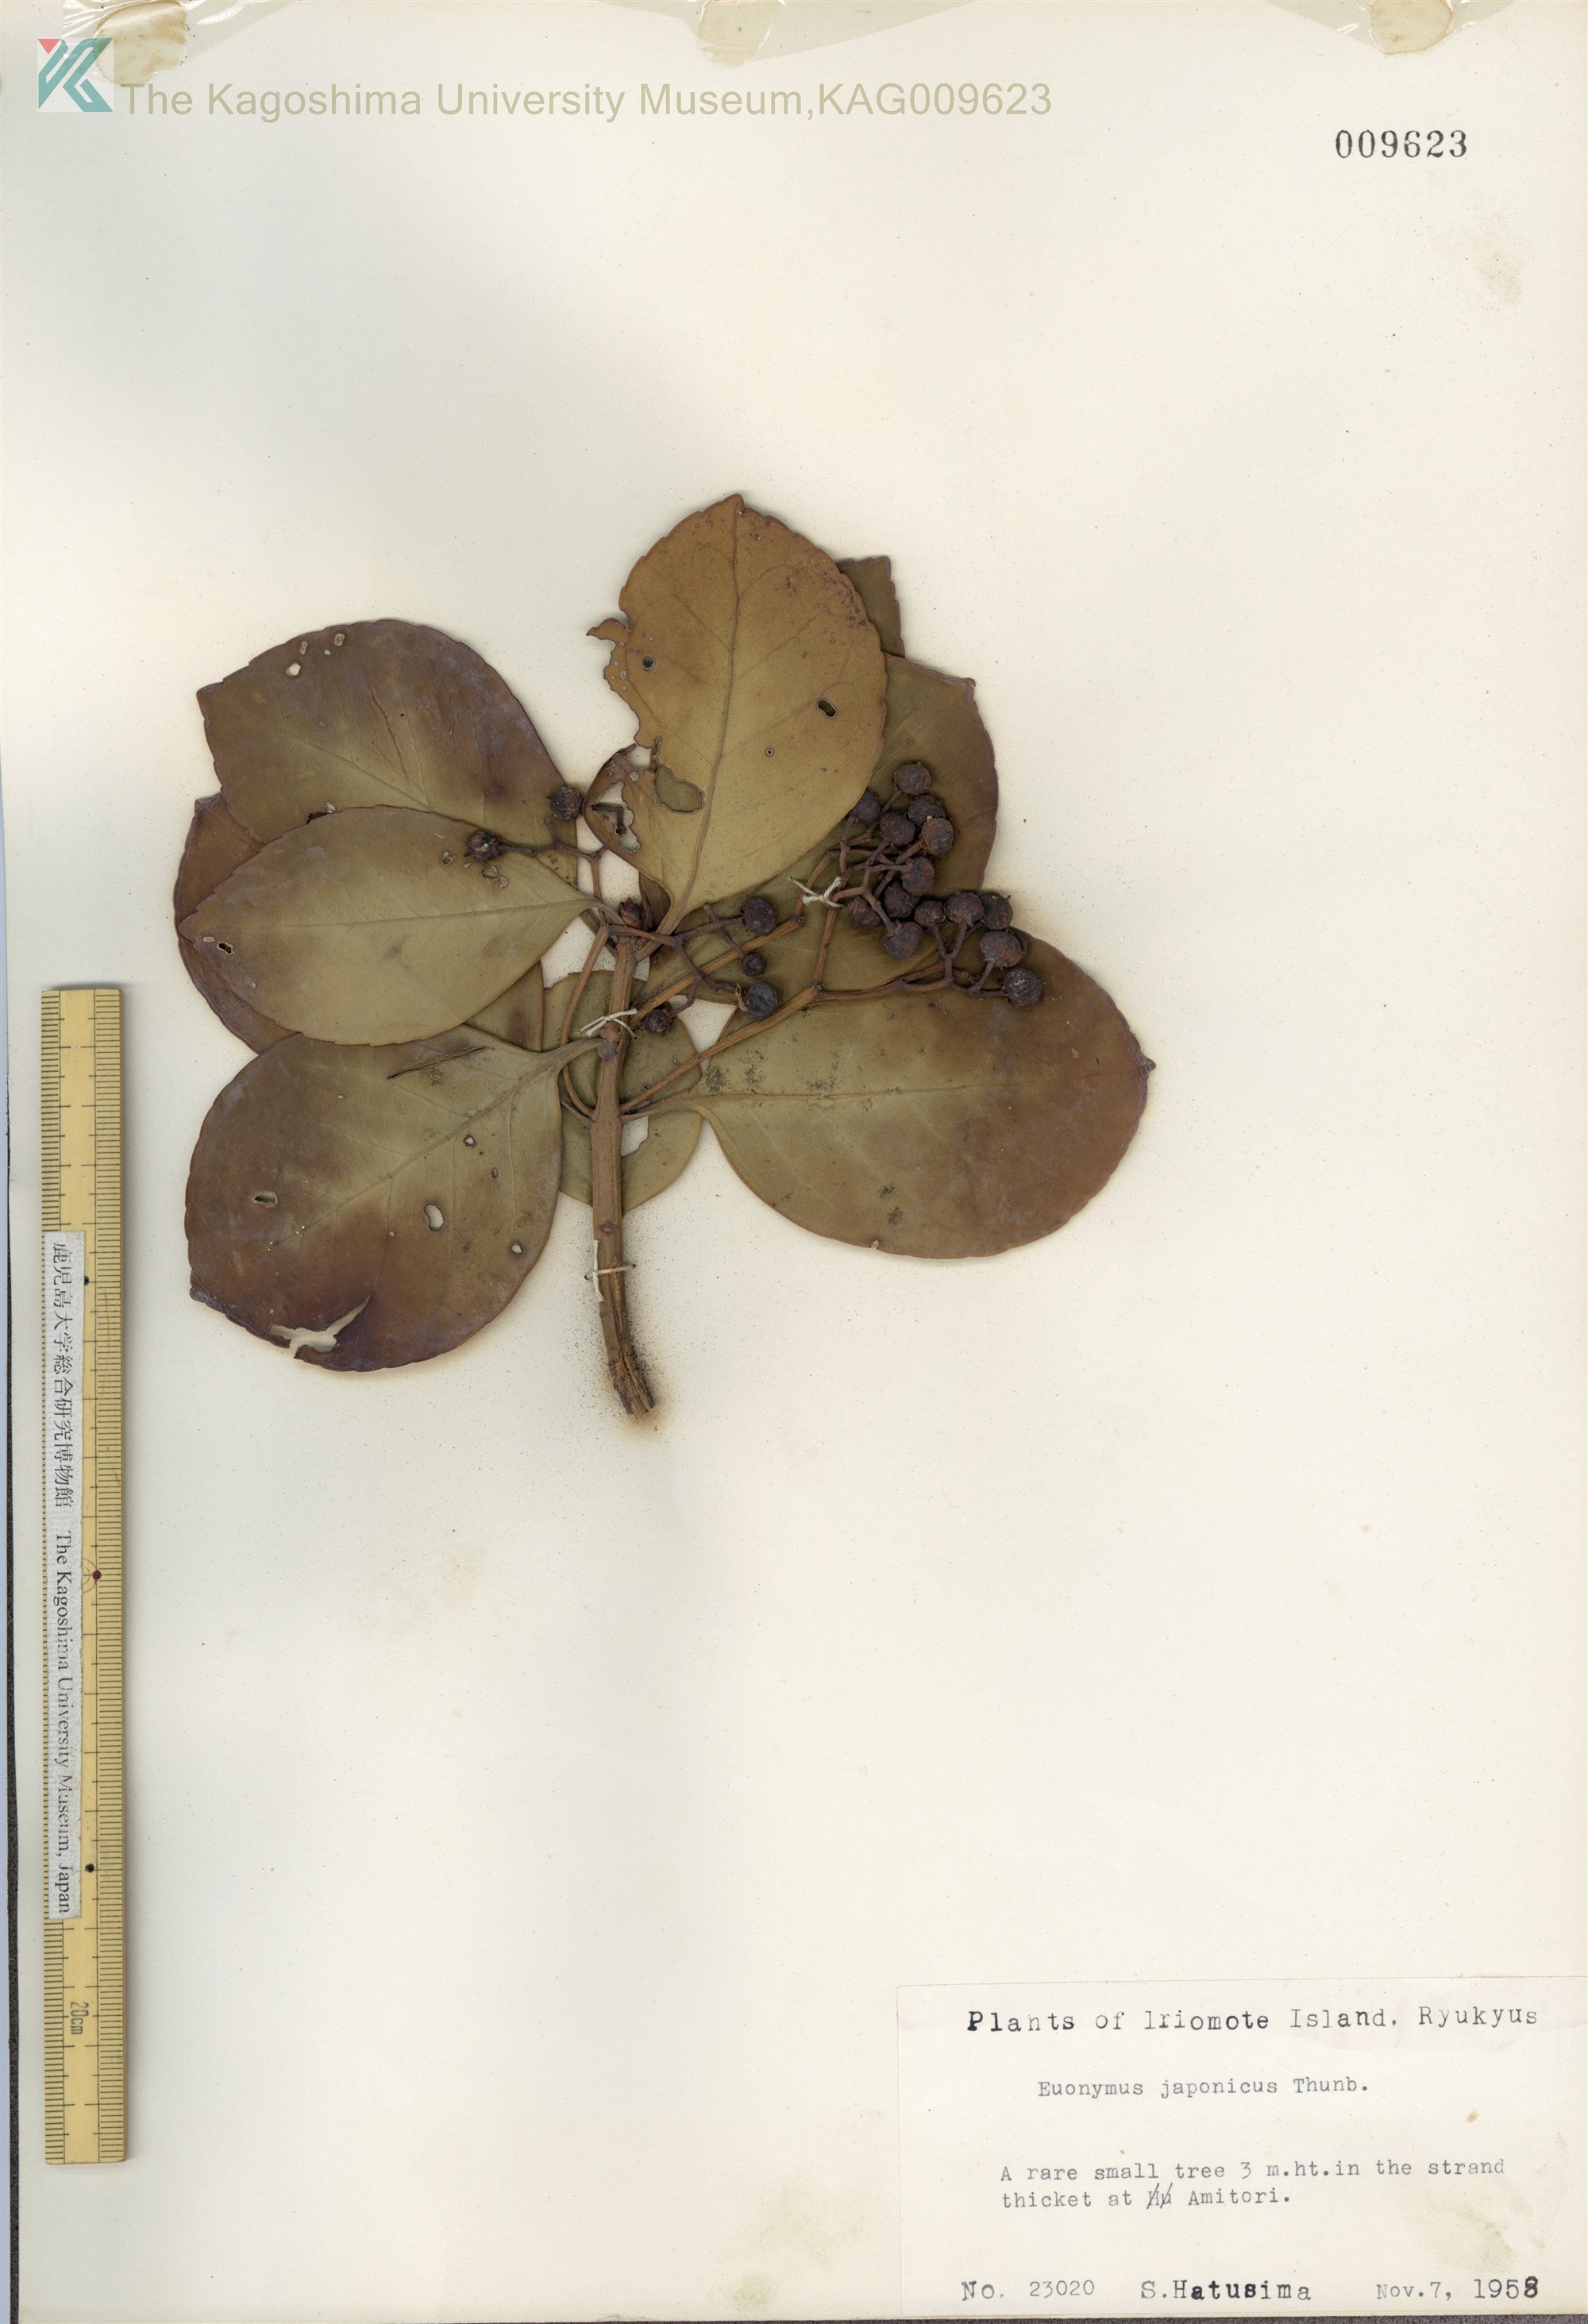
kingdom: Plantae
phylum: Tracheophyta
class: Magnoliopsida
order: Celastrales
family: Celastraceae
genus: Euonymus
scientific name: Euonymus japonicus
